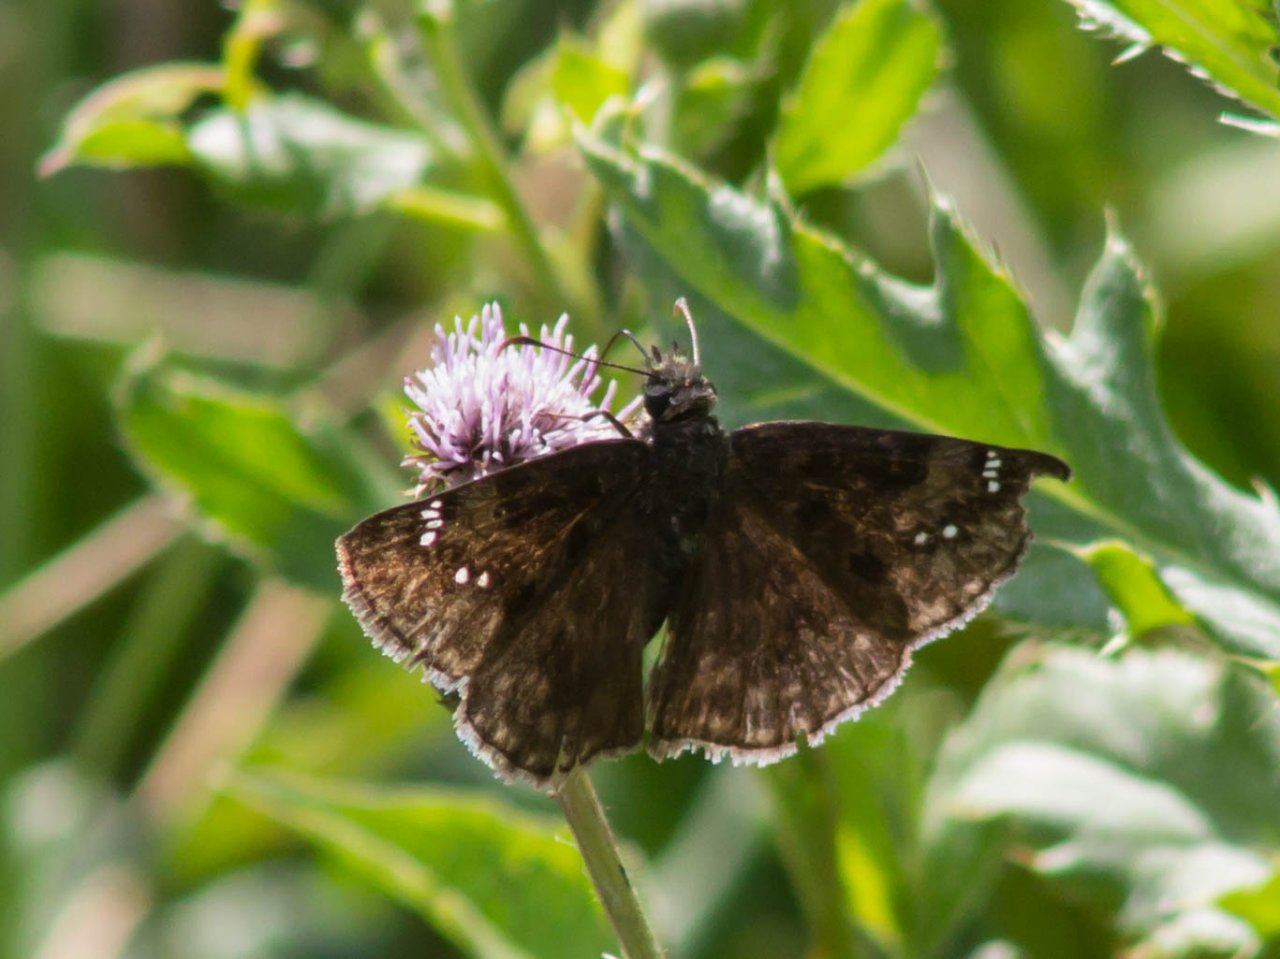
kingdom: Animalia
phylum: Arthropoda
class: Insecta
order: Lepidoptera
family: Hesperiidae
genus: Gesta
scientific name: Gesta
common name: Wild Indigo Duskywing
